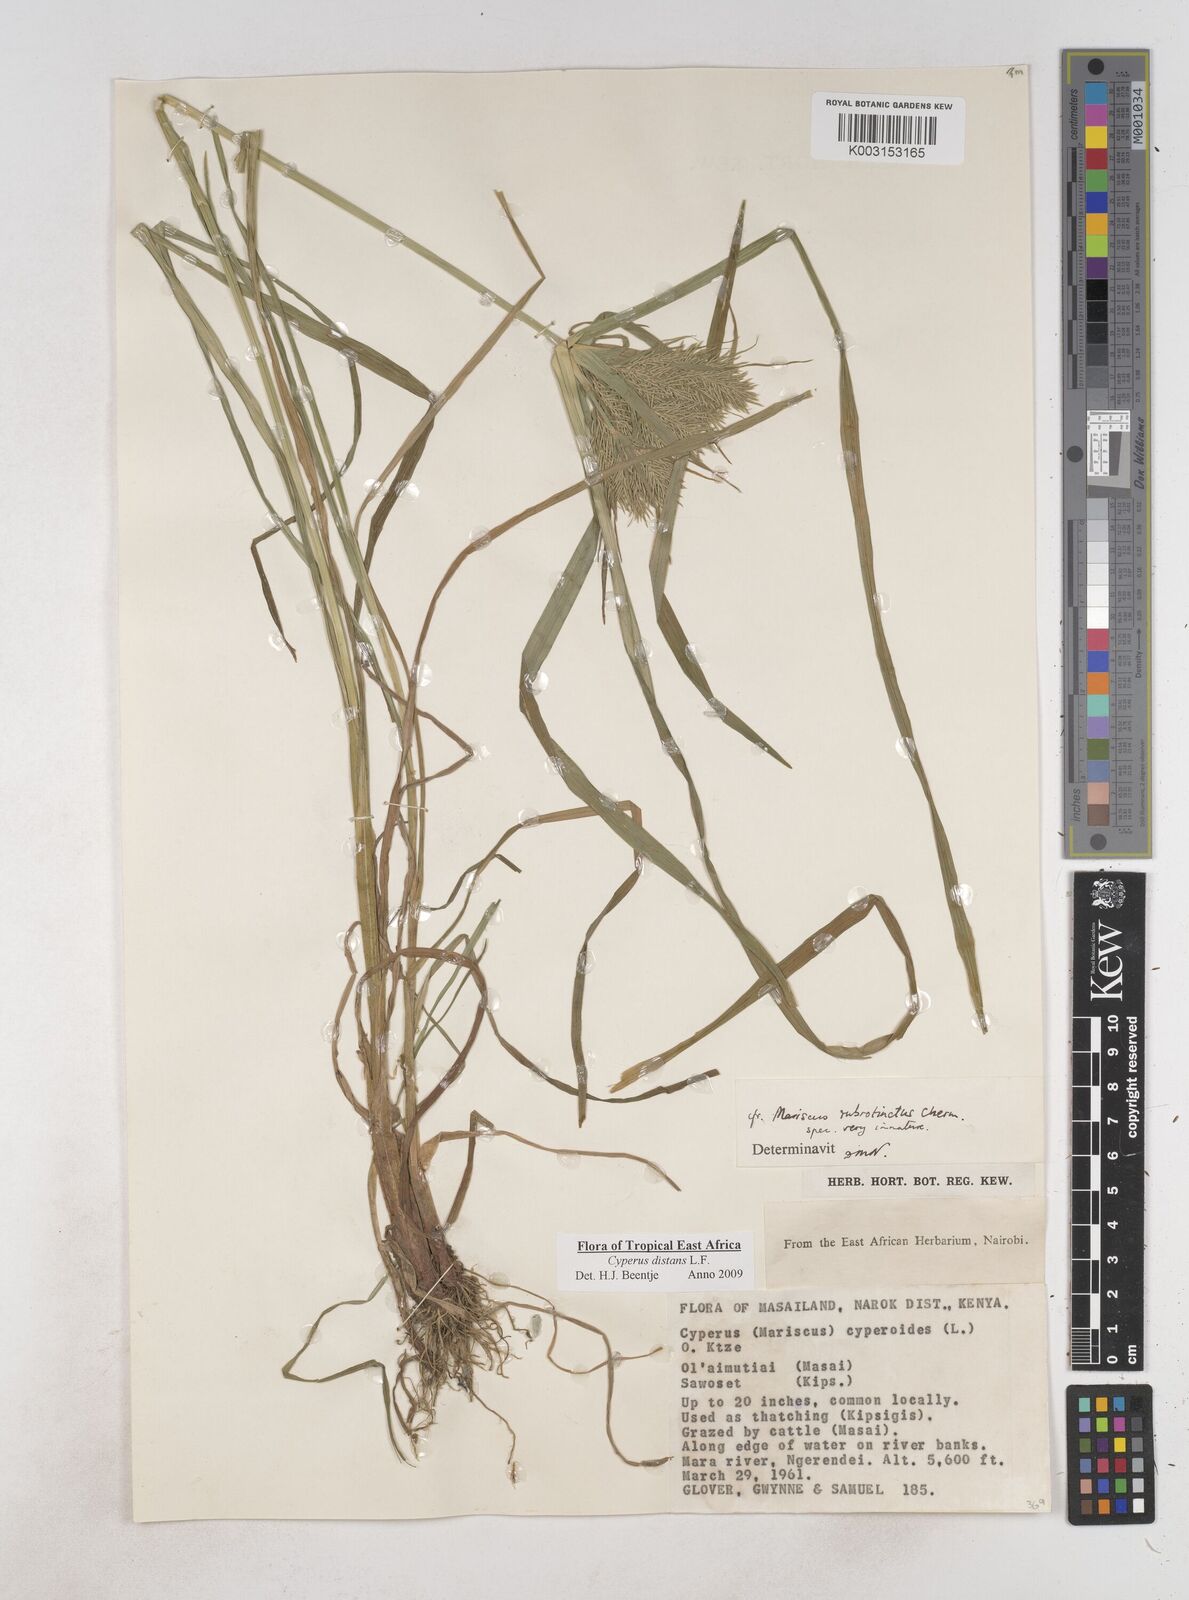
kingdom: Plantae
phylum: Tracheophyta
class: Liliopsida
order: Poales
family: Cyperaceae
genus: Cyperus
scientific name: Cyperus distans
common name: Slender cyperus
